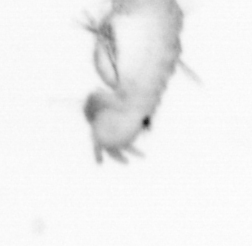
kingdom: Animalia
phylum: Annelida
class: Polychaeta
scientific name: Polychaeta
